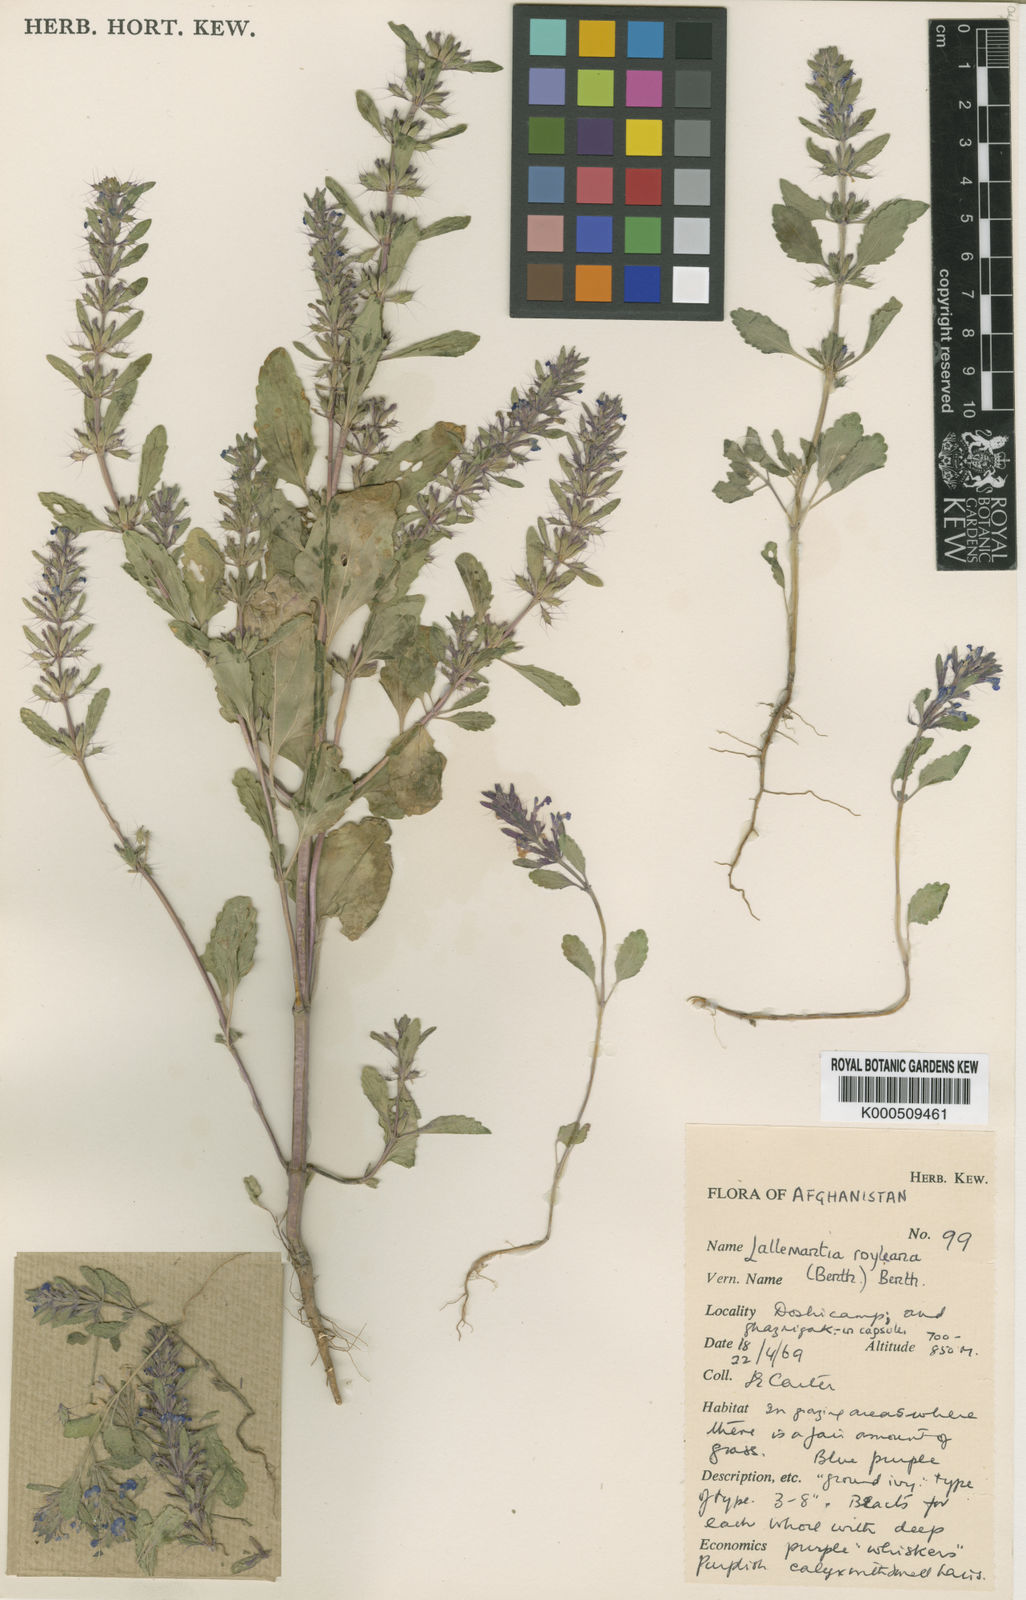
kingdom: Plantae
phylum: Tracheophyta
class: Magnoliopsida
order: Lamiales
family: Lamiaceae
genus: Lallemantia
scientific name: Lallemantia royleana
